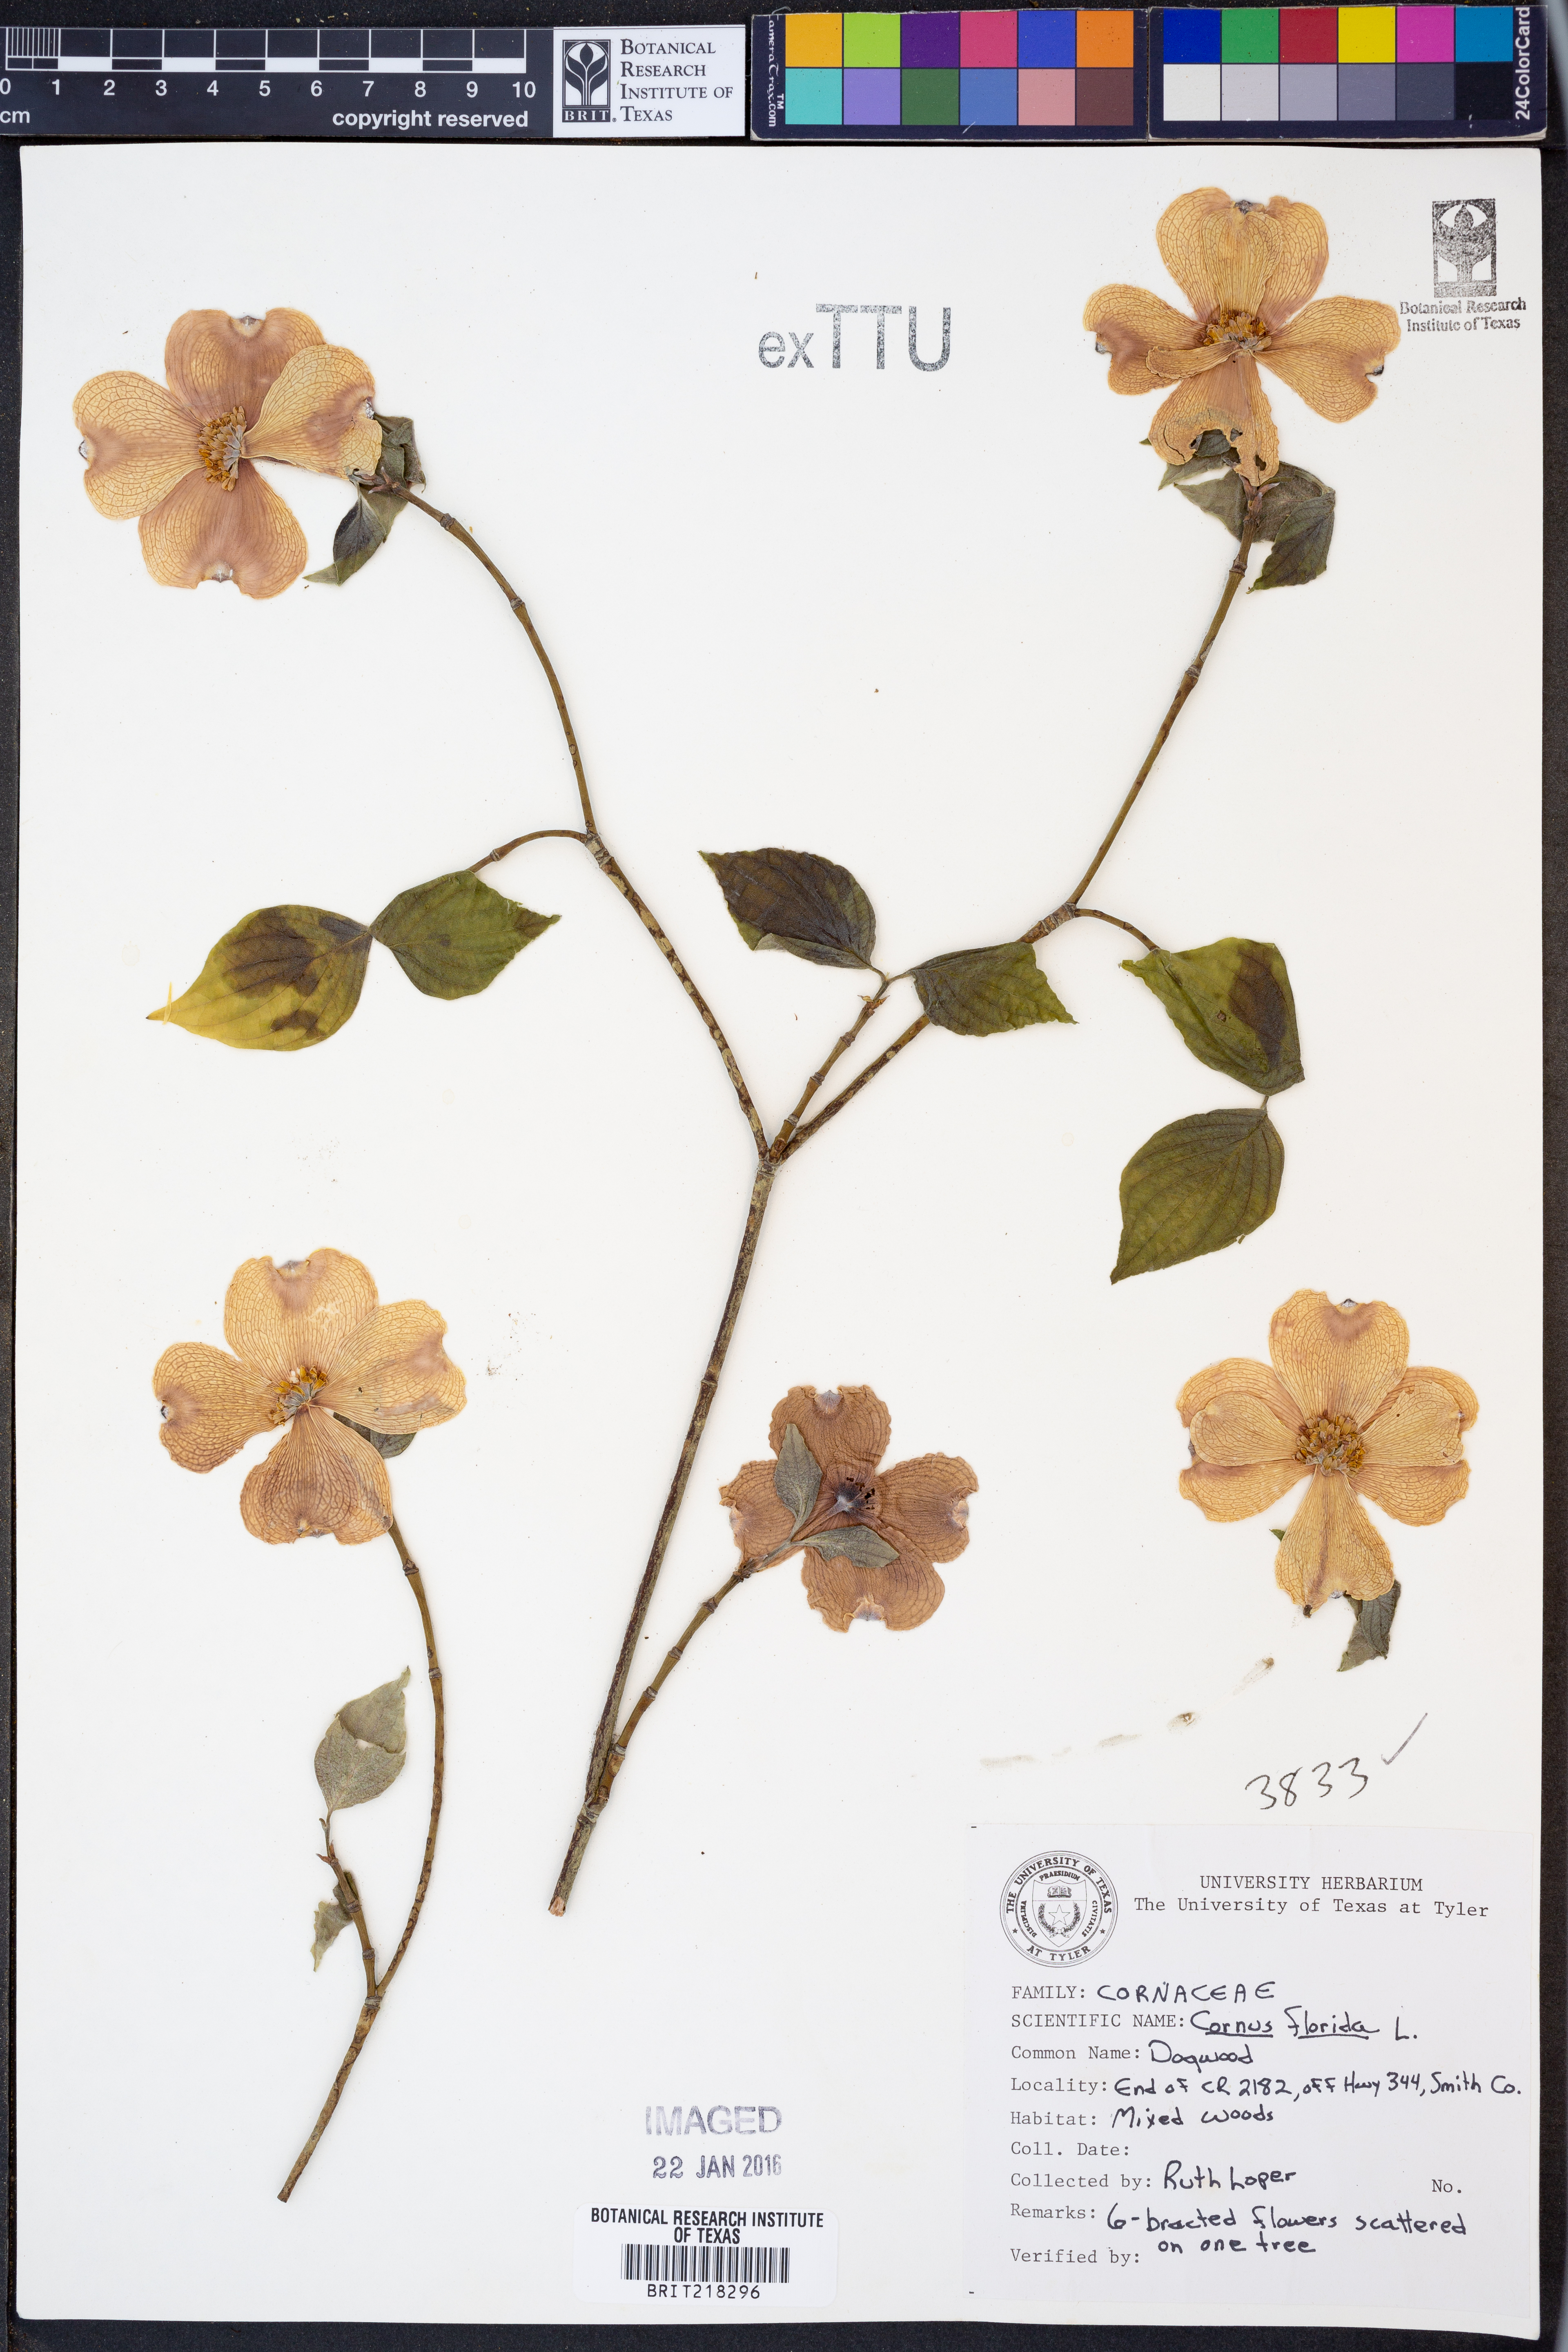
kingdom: Plantae
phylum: Tracheophyta
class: Magnoliopsida
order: Cornales
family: Cornaceae
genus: Cornus
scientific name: Cornus florida
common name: Flowering dogwood
